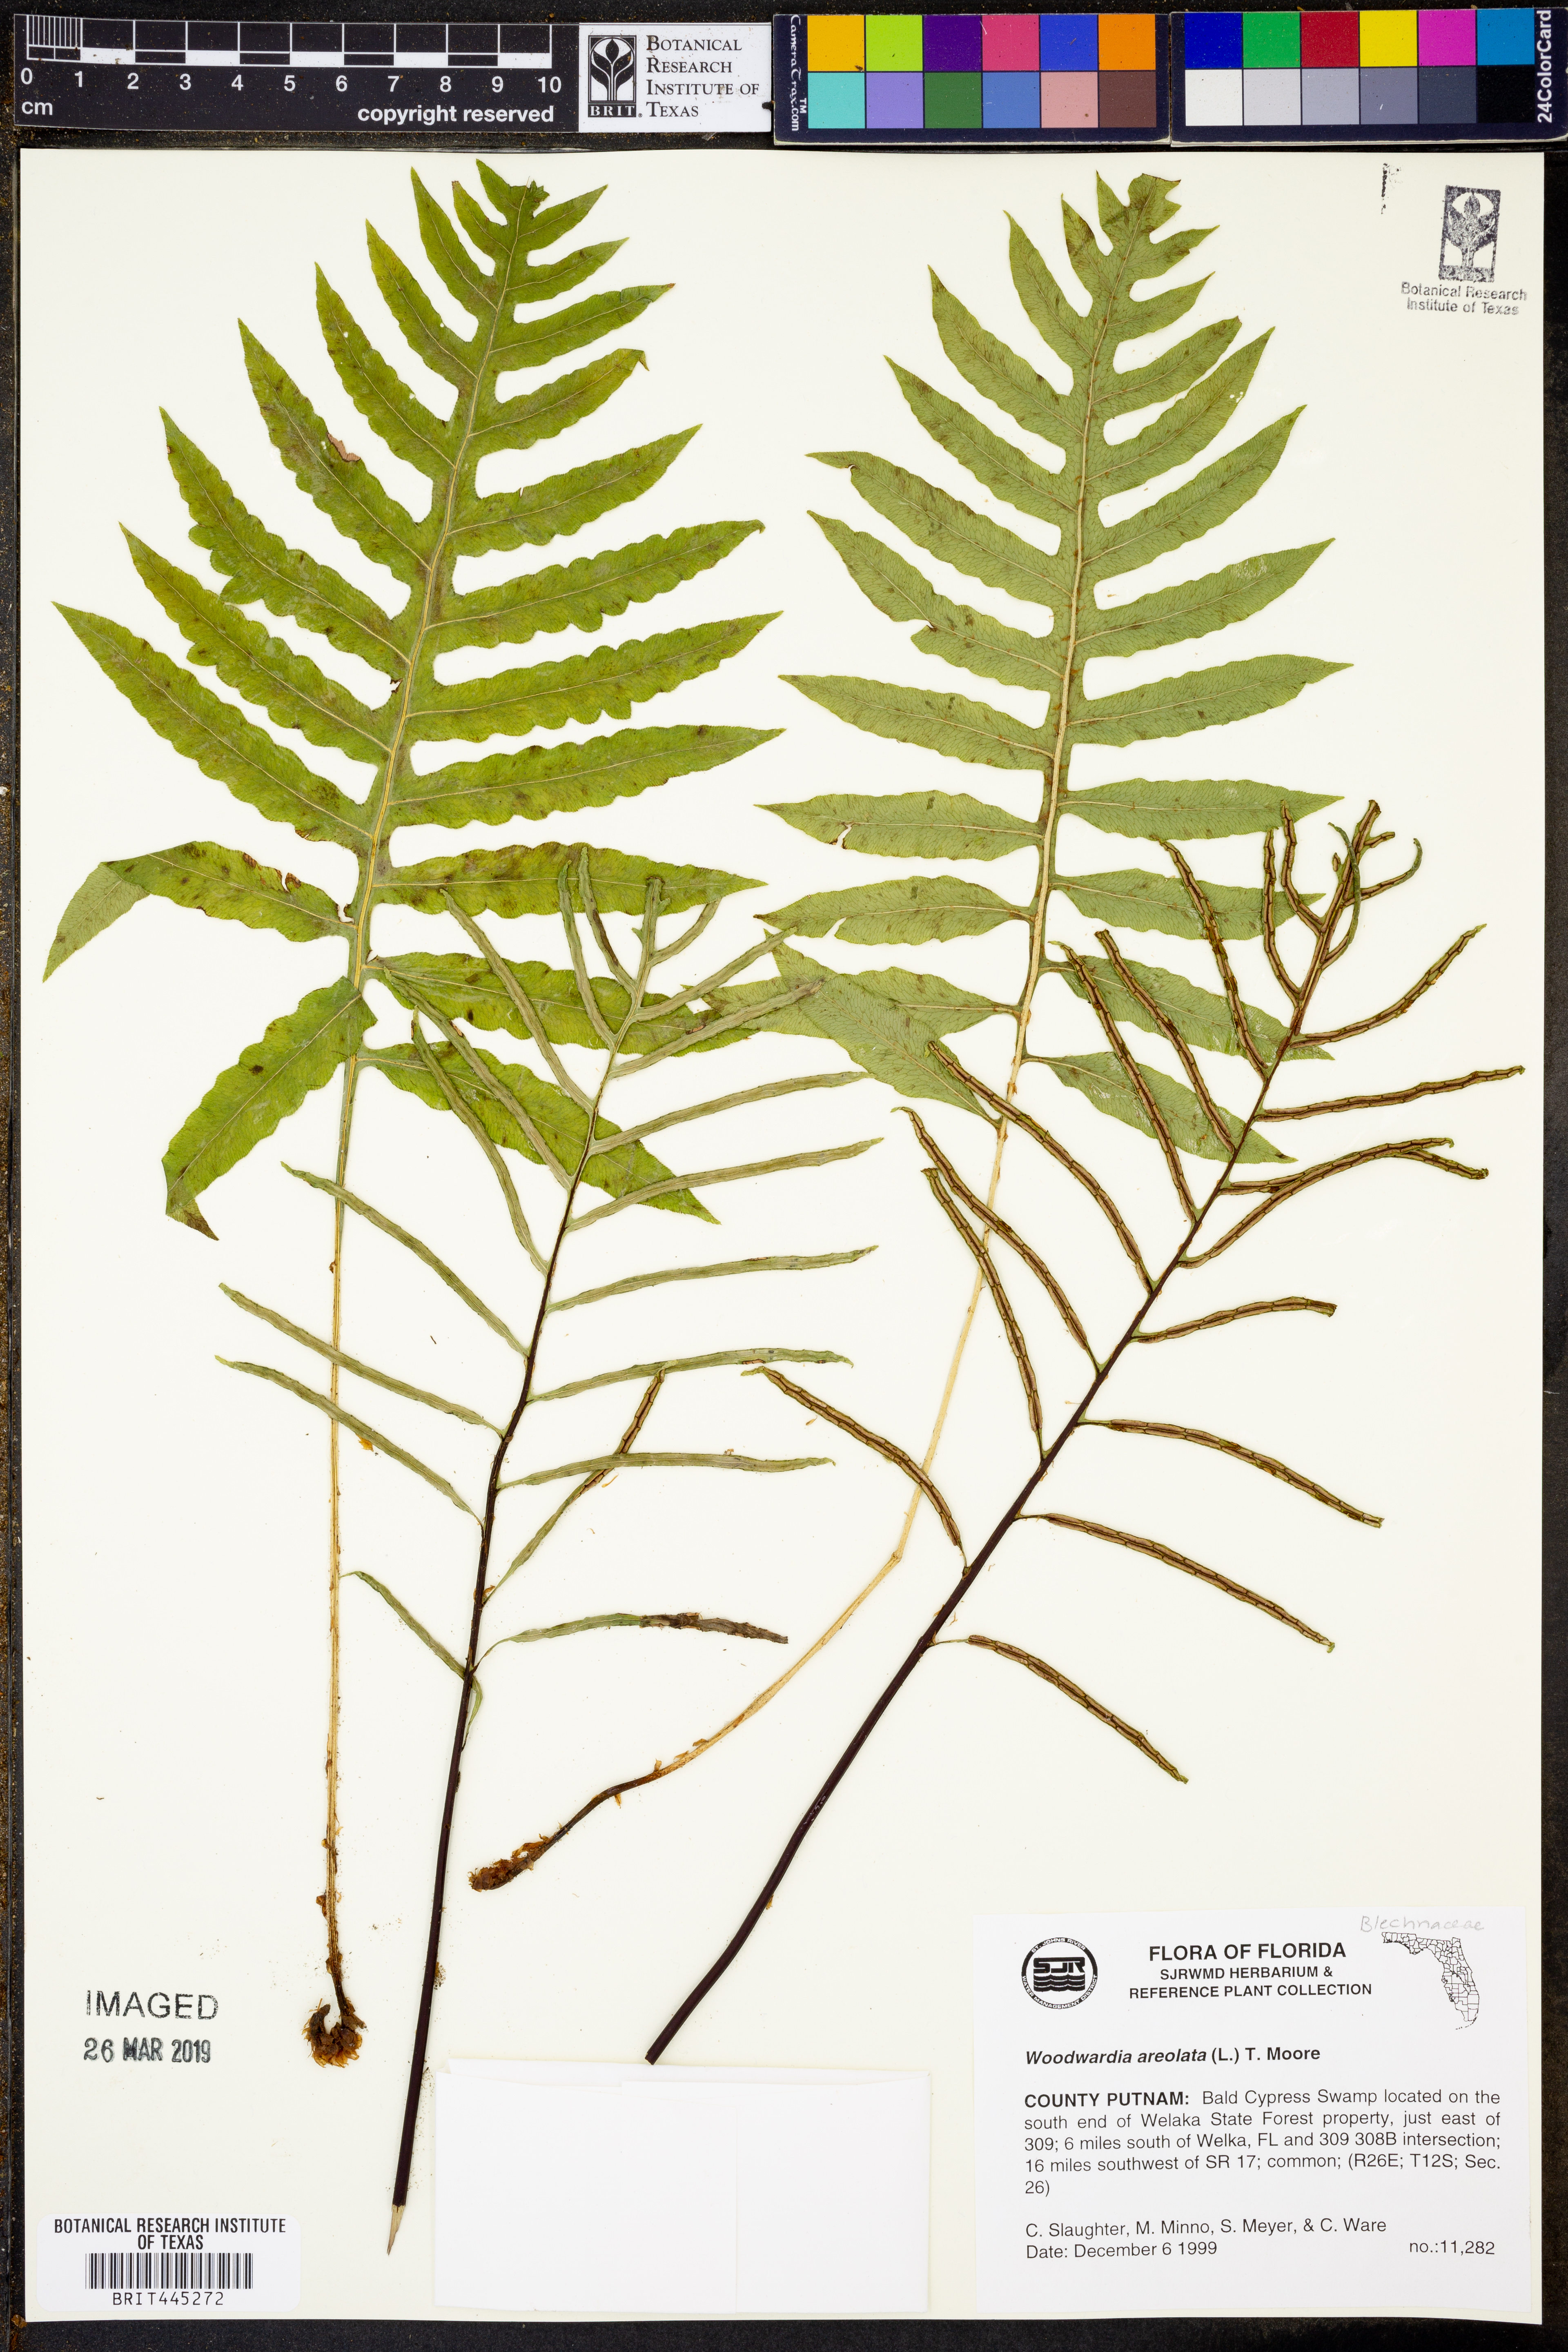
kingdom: Plantae
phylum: Tracheophyta
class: Polypodiopsida
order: Polypodiales
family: Blechnaceae
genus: Lorinseria
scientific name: Lorinseria areolata
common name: Dwarf chain fern
